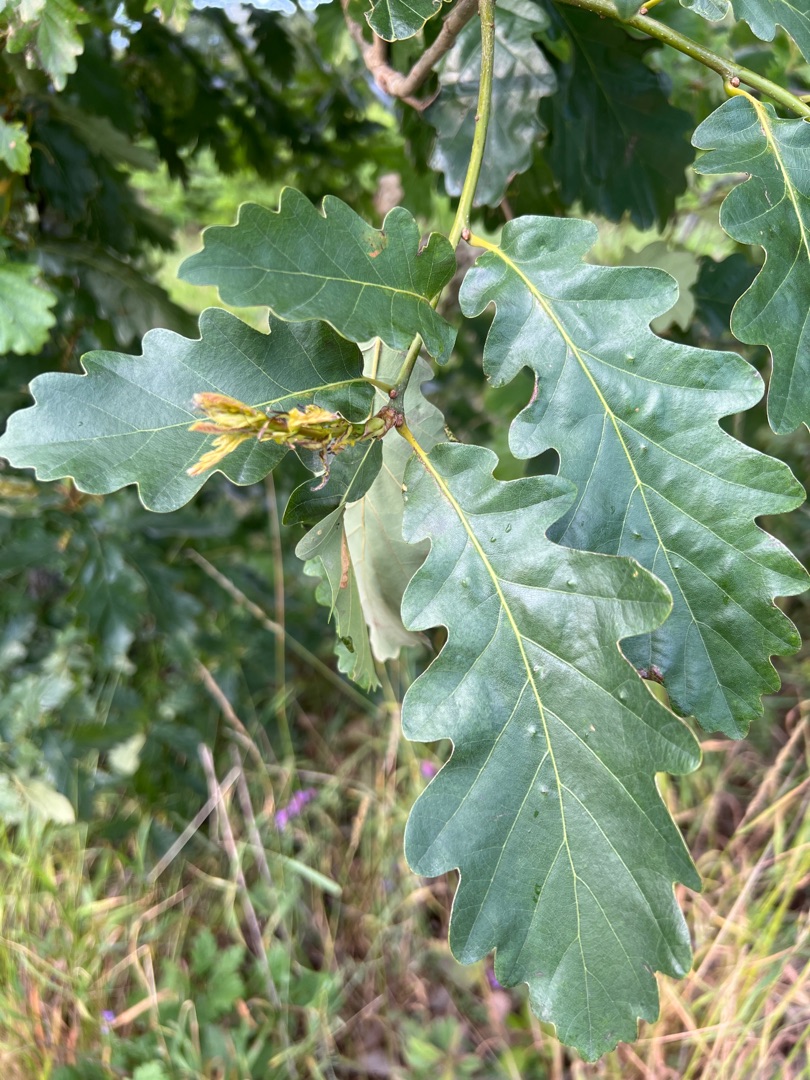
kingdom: Plantae
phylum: Tracheophyta
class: Magnoliopsida
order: Fagales
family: Fagaceae
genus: Quercus
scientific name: Quercus petraea
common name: Vinter-eg
